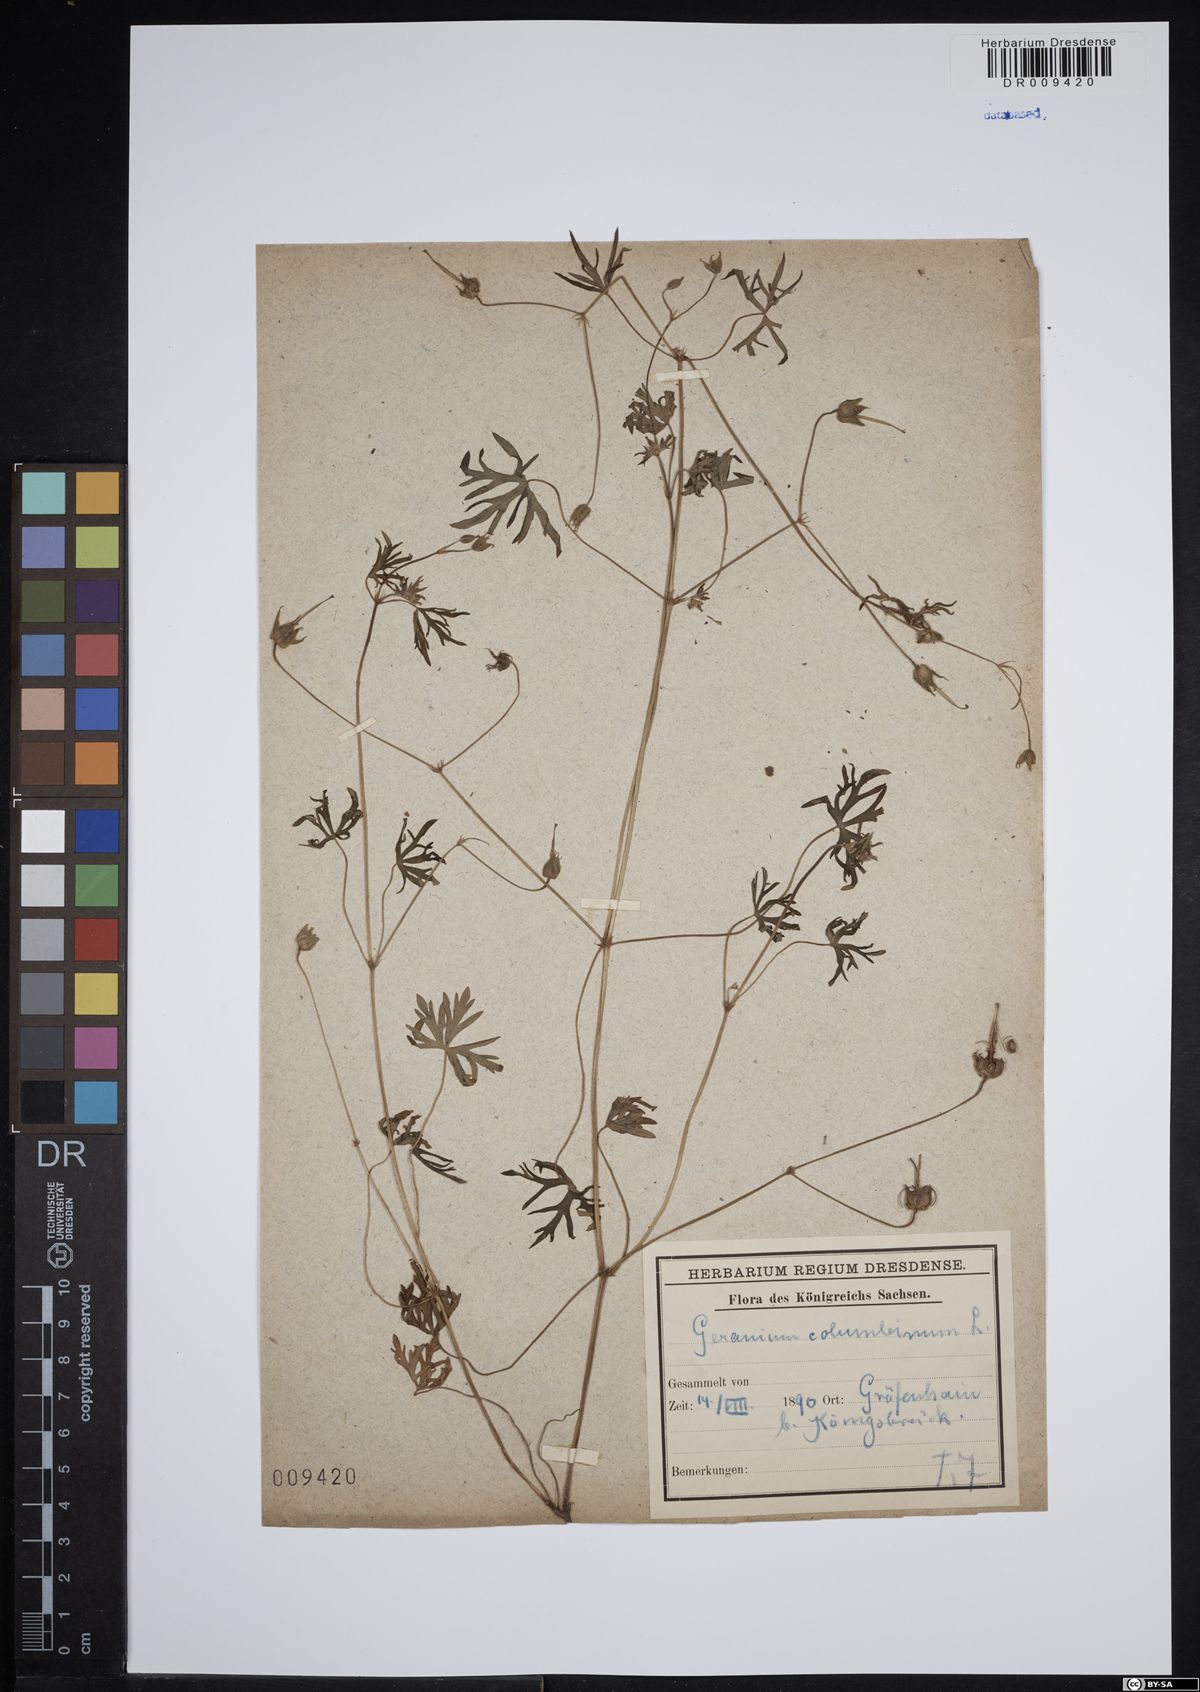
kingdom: Plantae
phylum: Tracheophyta
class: Magnoliopsida
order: Geraniales
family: Geraniaceae
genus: Geranium
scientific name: Geranium columbinum
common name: Long-stalked crane's-bill
